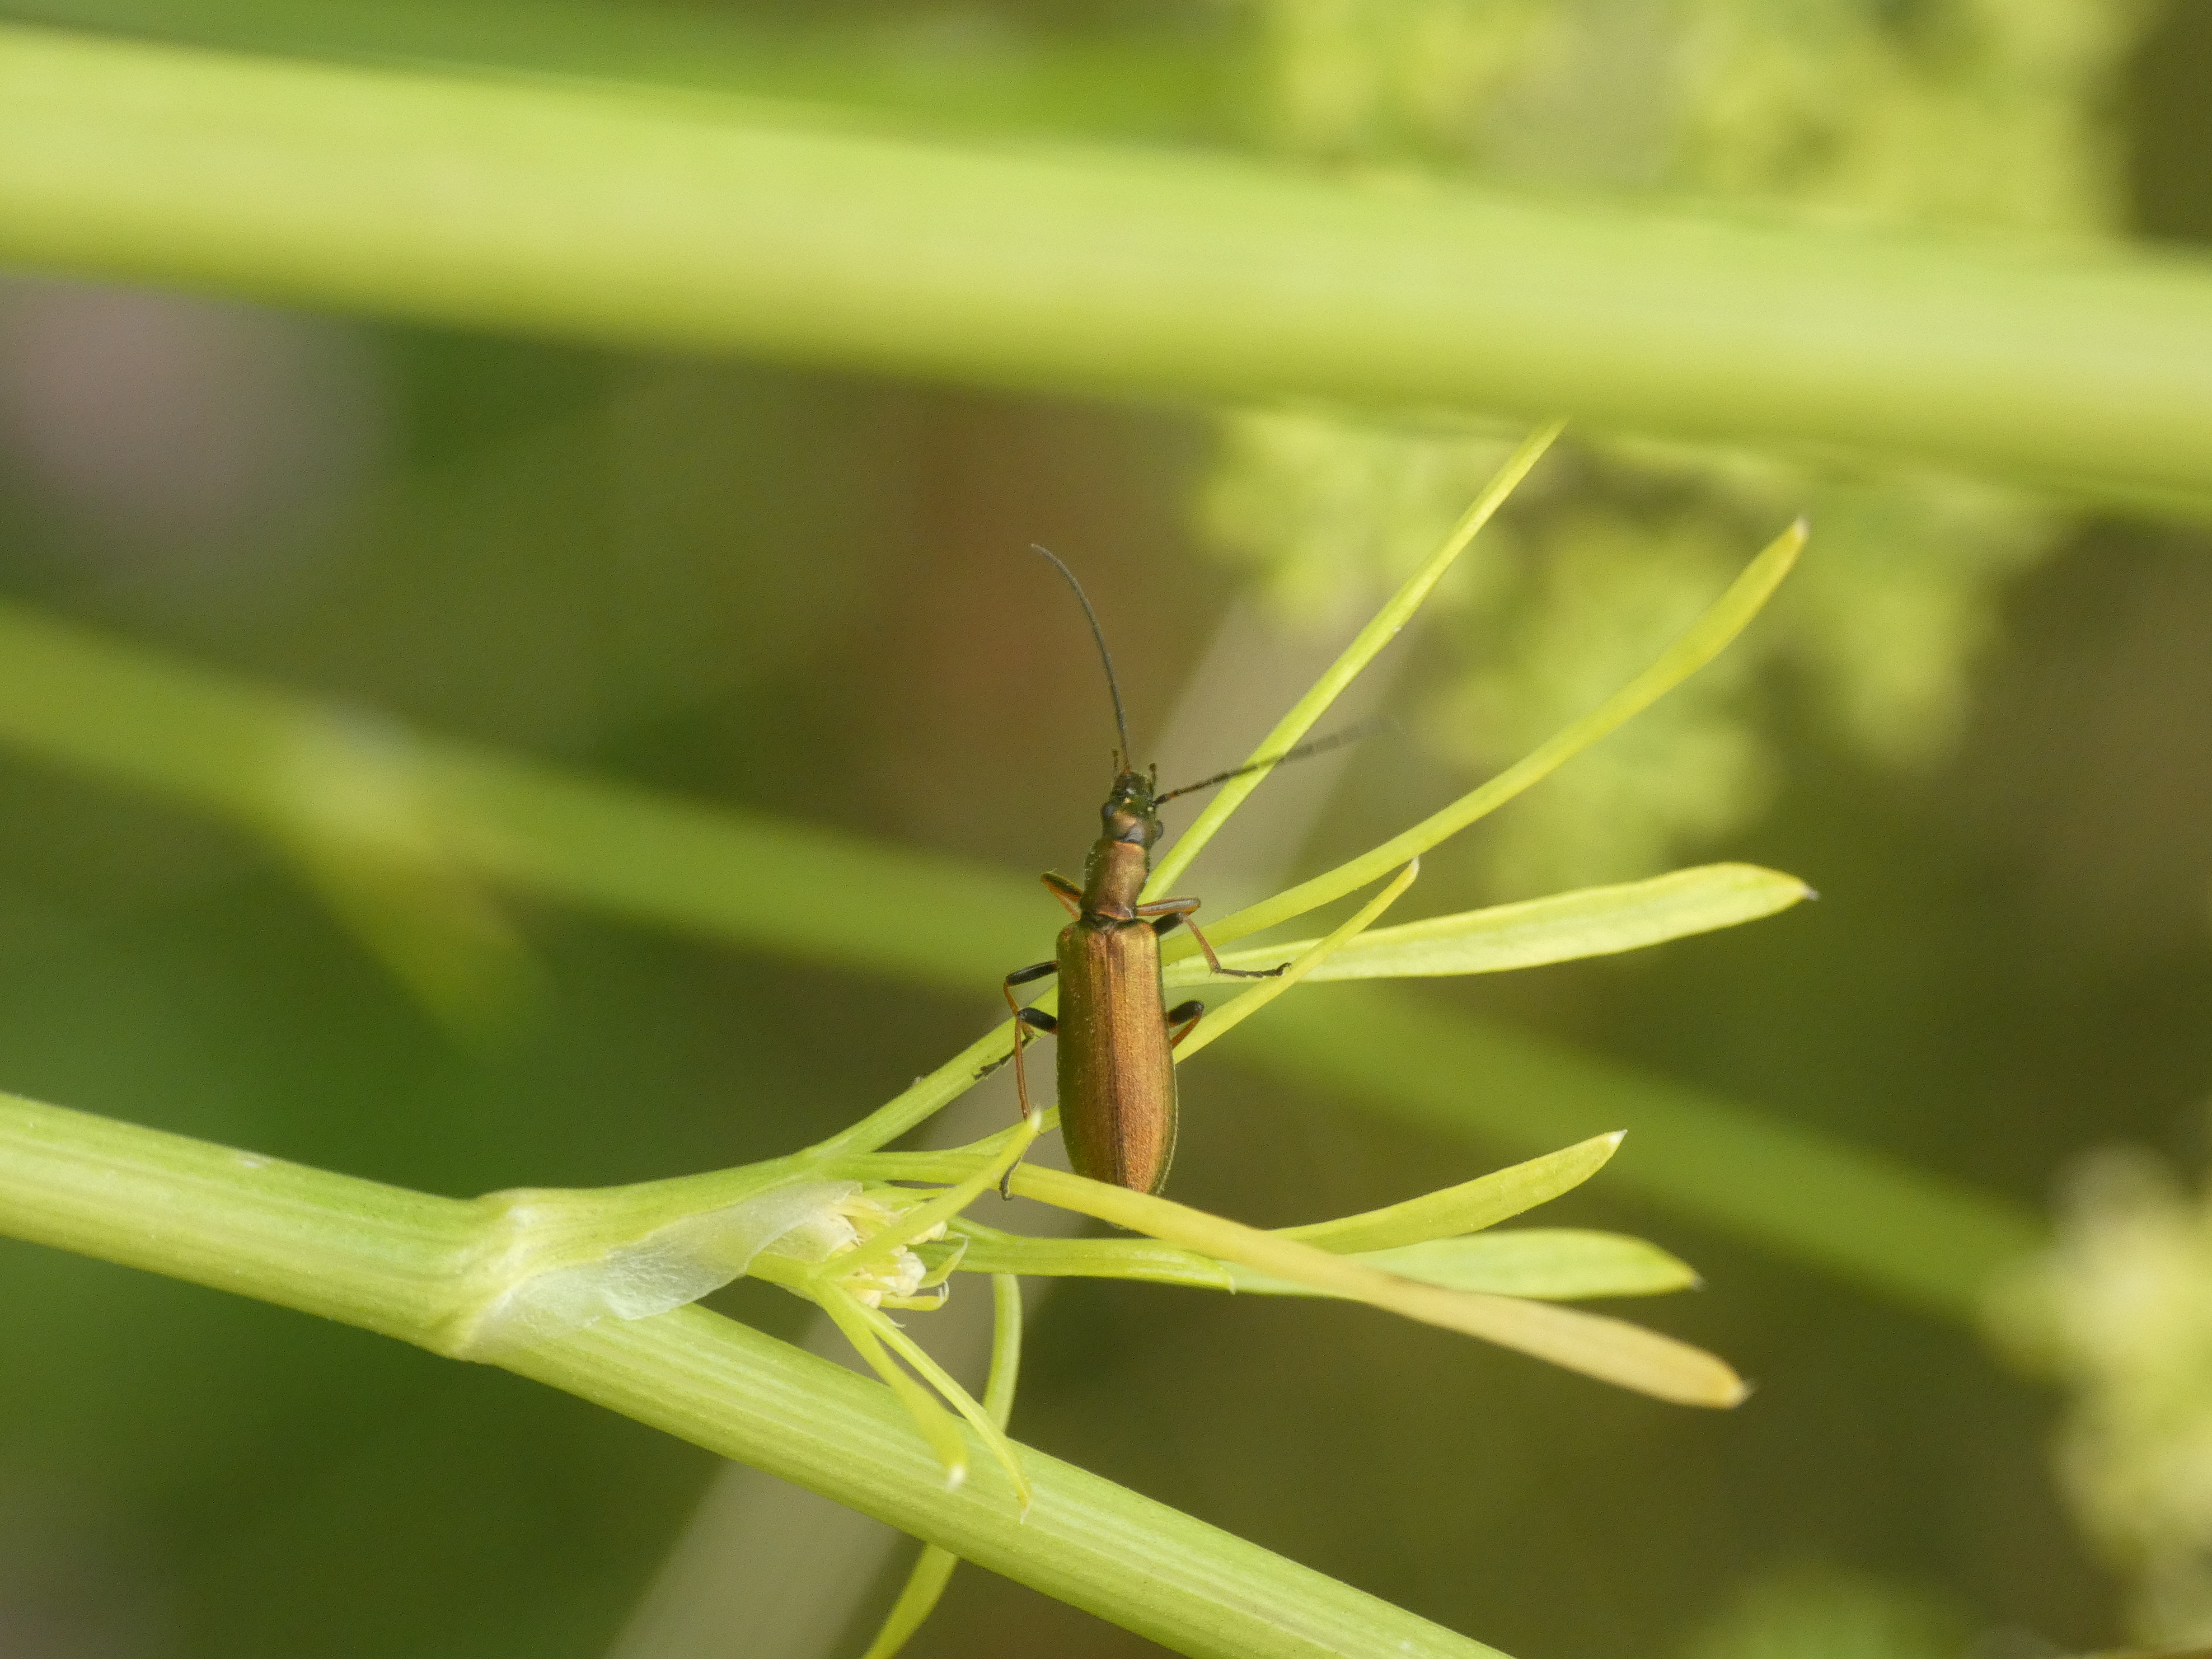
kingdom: Animalia
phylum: Arthropoda
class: Insecta
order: Coleoptera
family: Oedemeridae
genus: Chrysanthia
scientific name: Chrysanthia geniculata
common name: Grøn solbille
